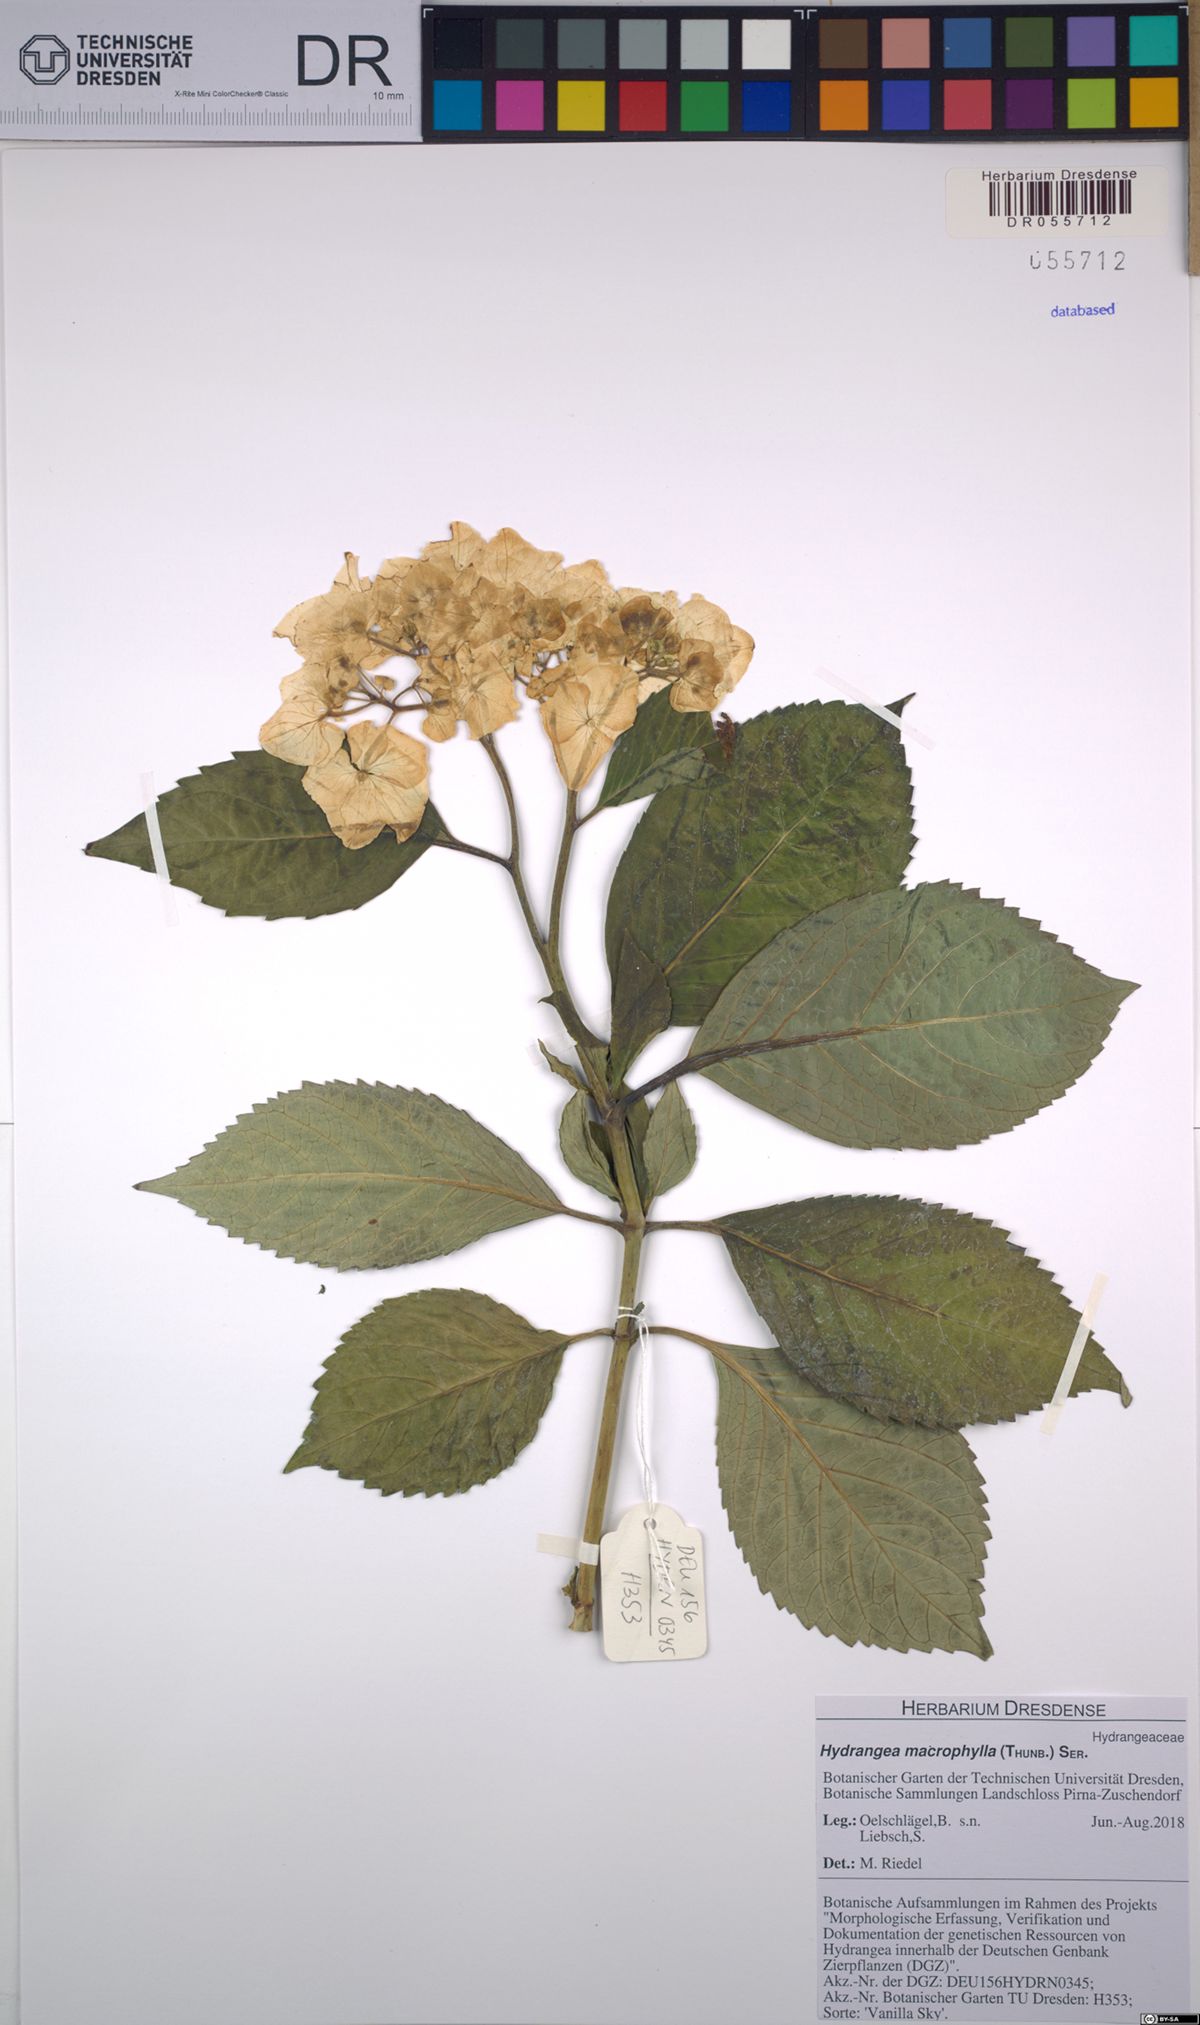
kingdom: Plantae
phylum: Tracheophyta
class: Magnoliopsida
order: Cornales
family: Hydrangeaceae
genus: Hydrangea
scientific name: Hydrangea macrophylla
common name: Hydrangea
